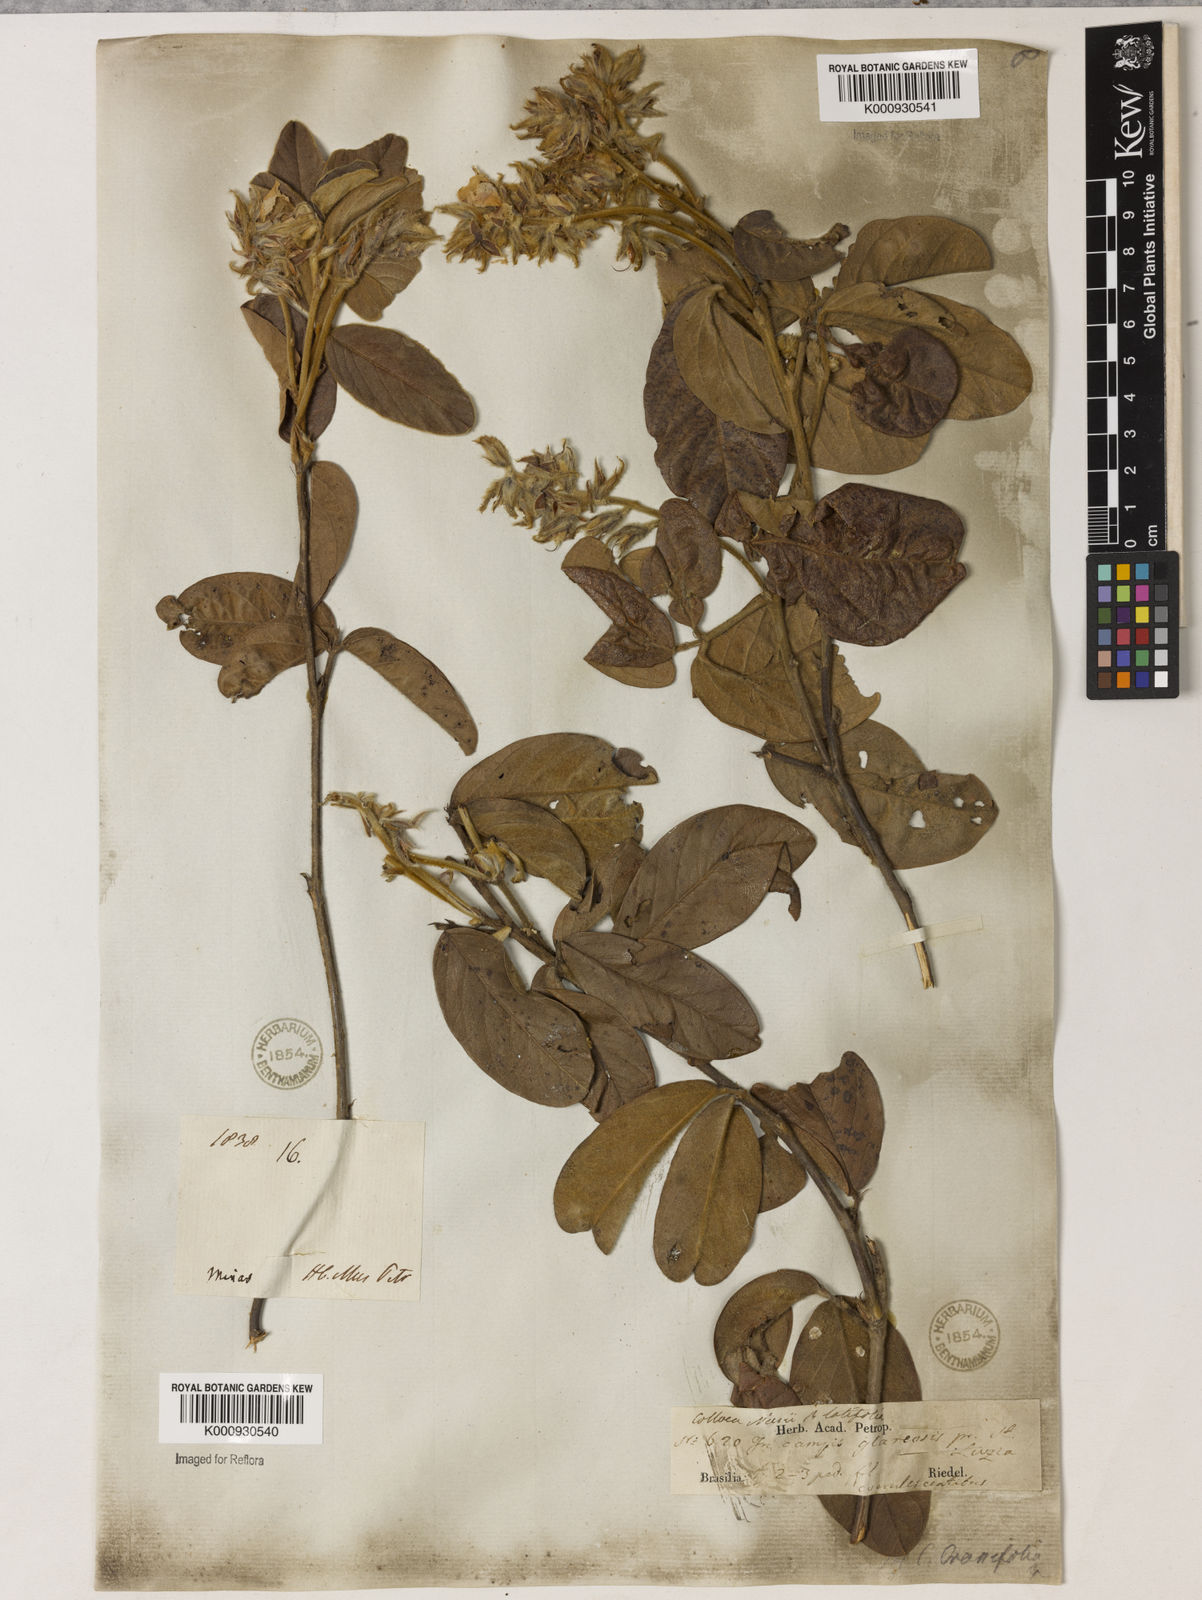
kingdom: Plantae
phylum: Tracheophyta
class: Magnoliopsida
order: Fabales
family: Fabaceae
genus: Betencourtia
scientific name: Betencourtia crassifolia
